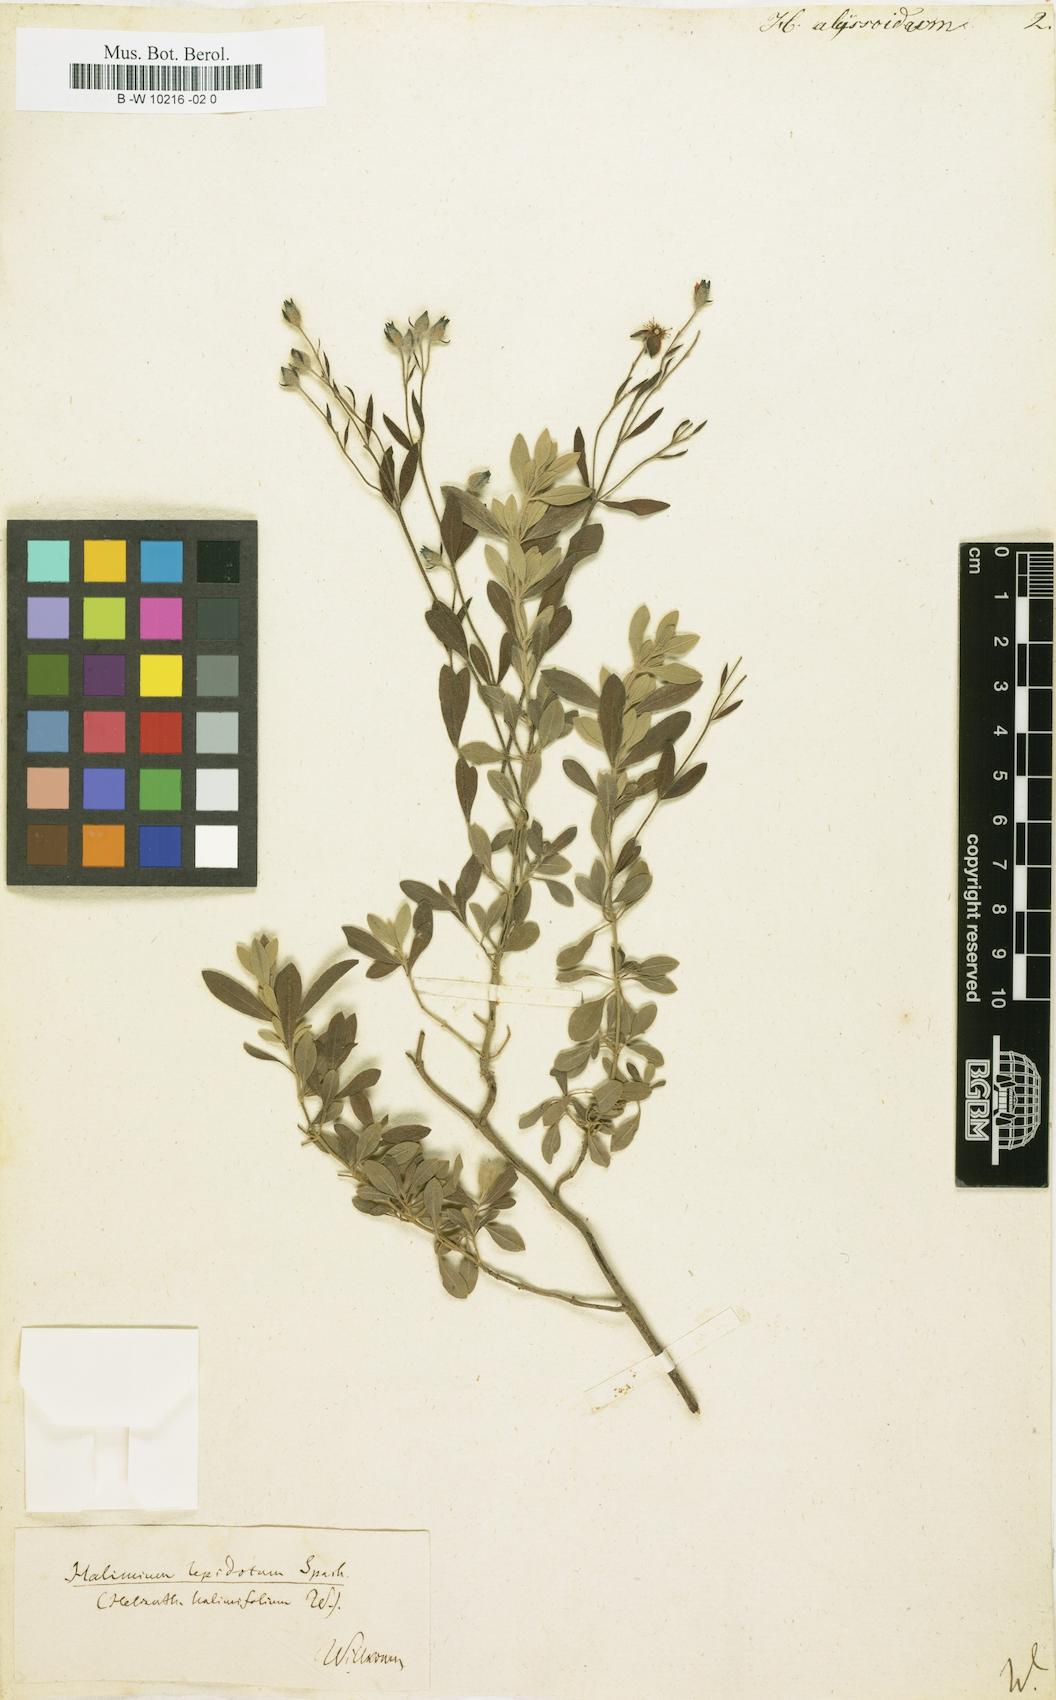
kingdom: Plantae
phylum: Tracheophyta
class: Magnoliopsida
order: Malvales
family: Cistaceae
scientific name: Cistaceae
